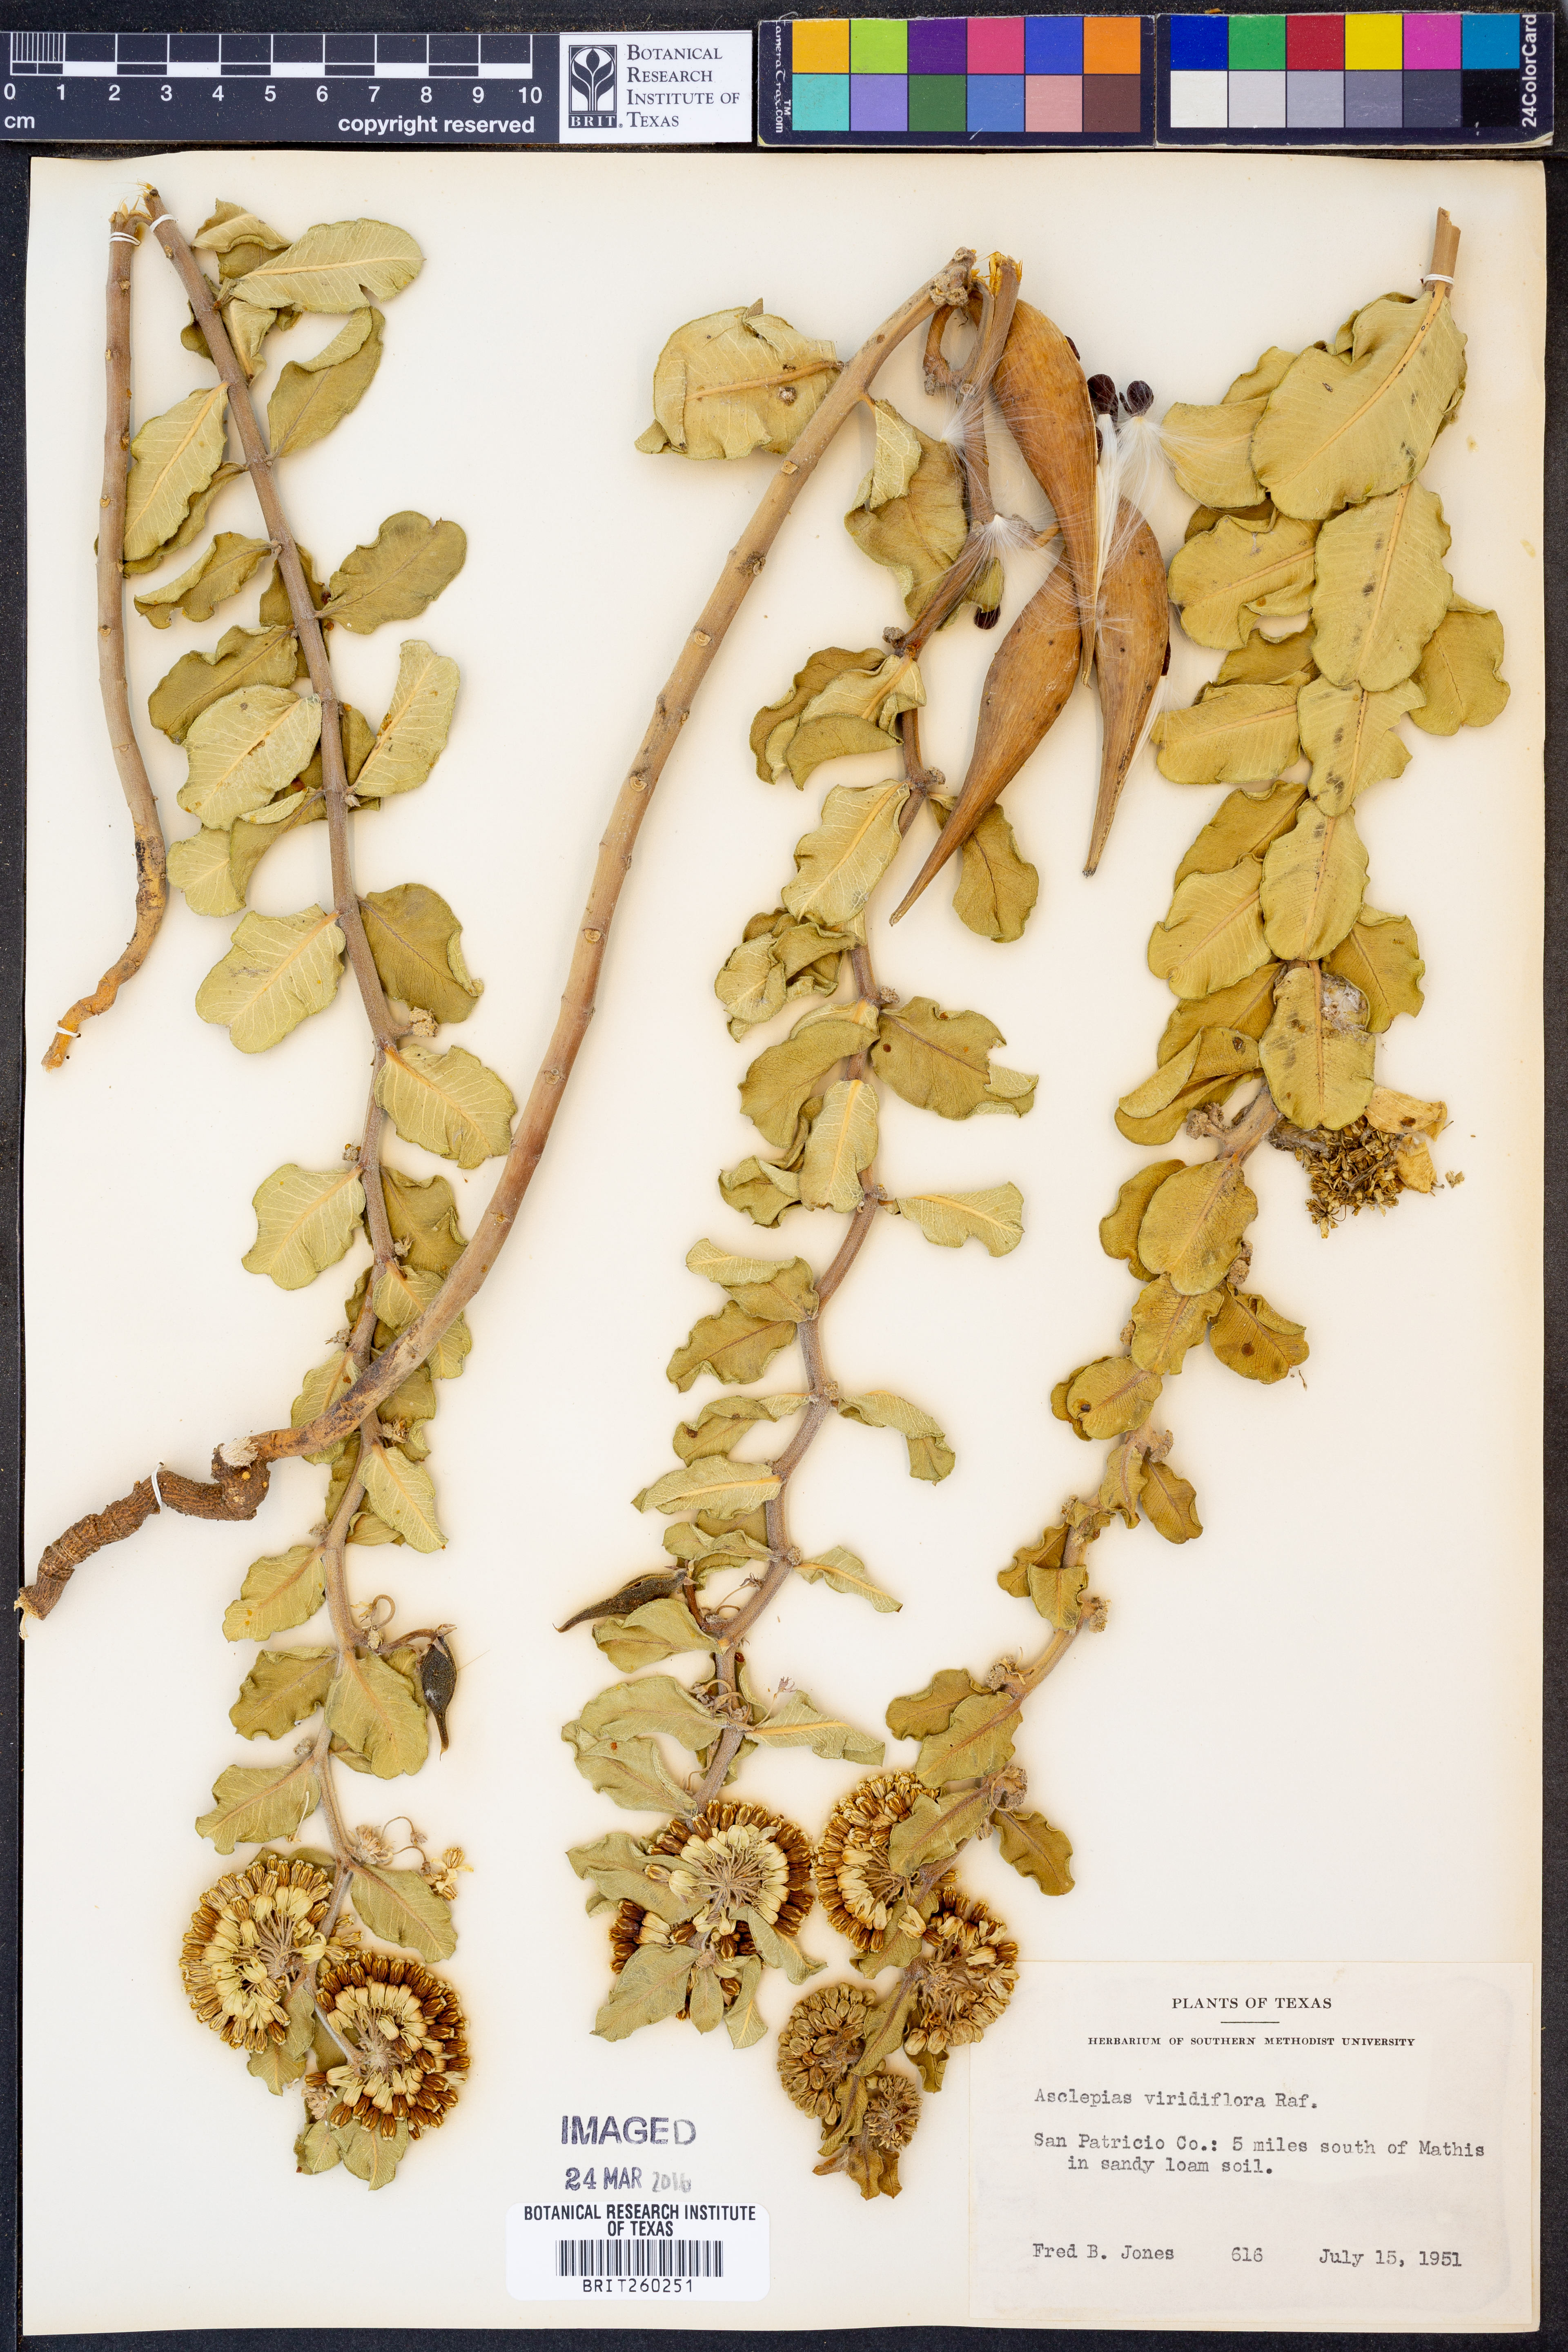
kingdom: Plantae
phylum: Tracheophyta
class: Magnoliopsida
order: Gentianales
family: Apocynaceae
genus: Asclepias
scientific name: Asclepias viridiflora
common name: Green comet milkweed
